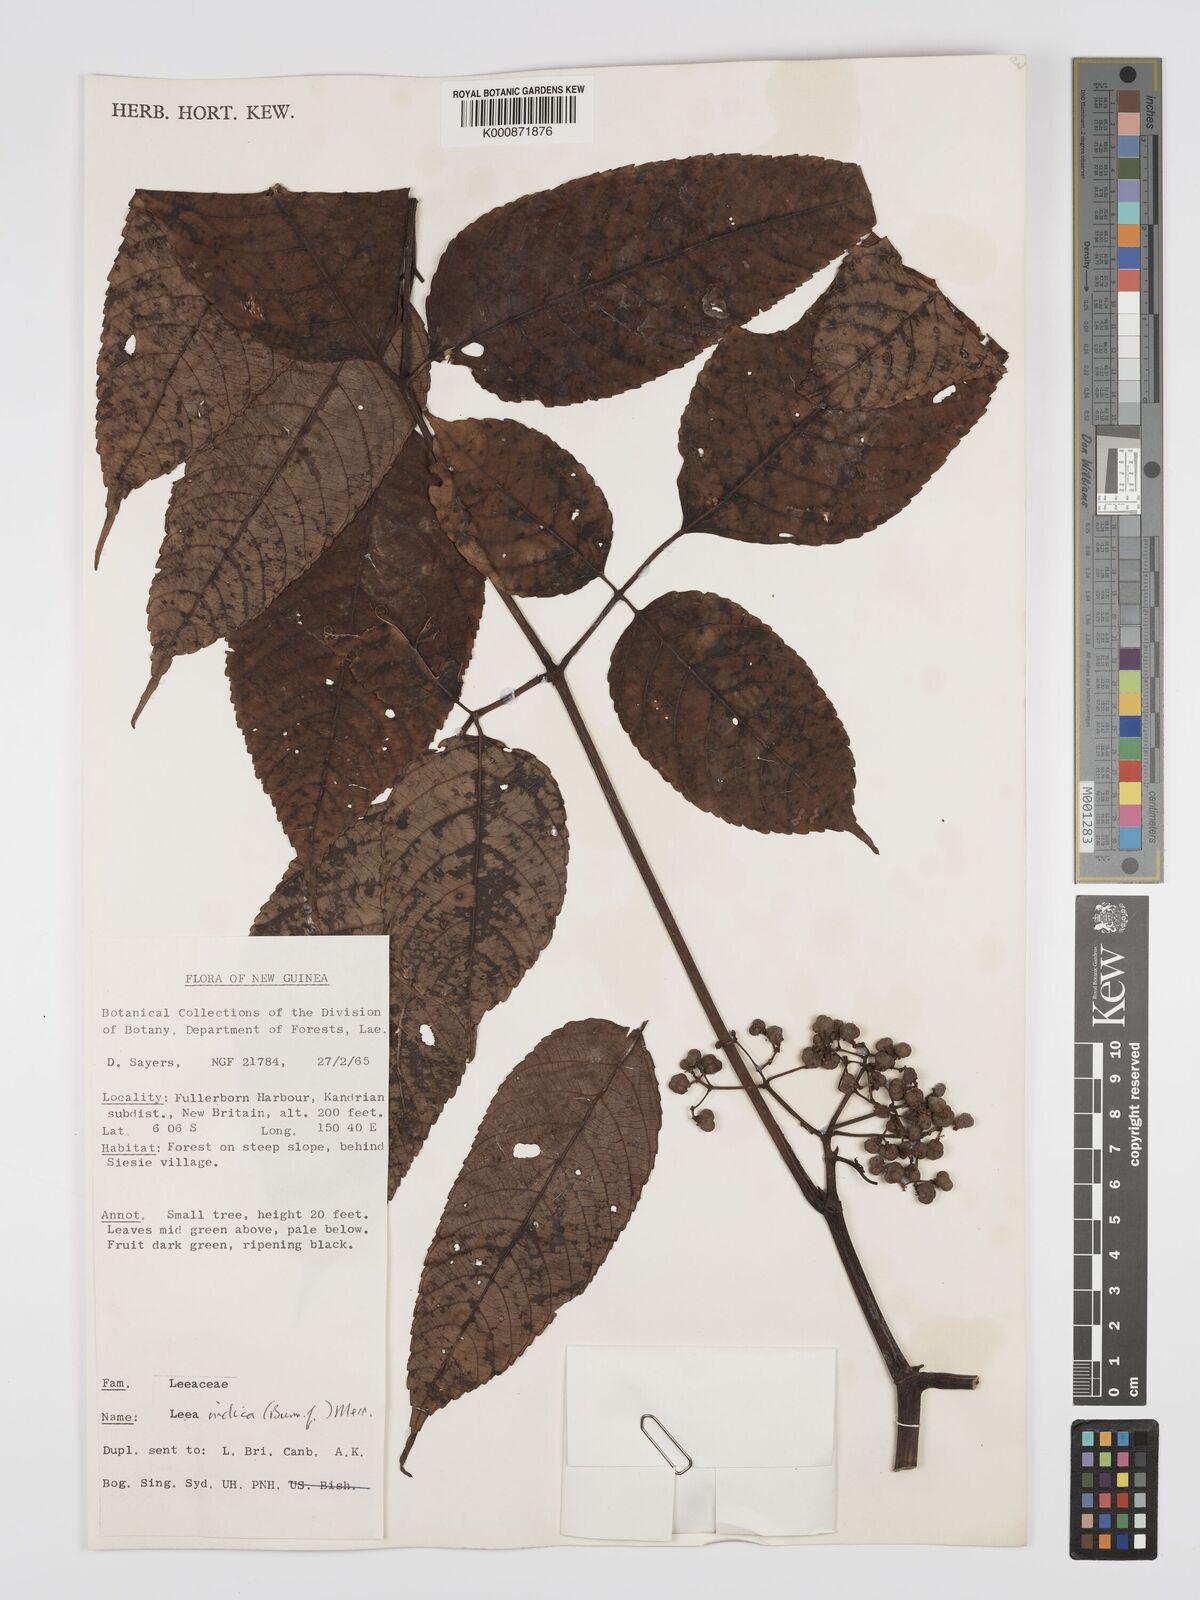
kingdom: Plantae
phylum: Tracheophyta
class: Magnoliopsida
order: Vitales
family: Vitaceae
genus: Leea
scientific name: Leea indica
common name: Bandicoot-berry
